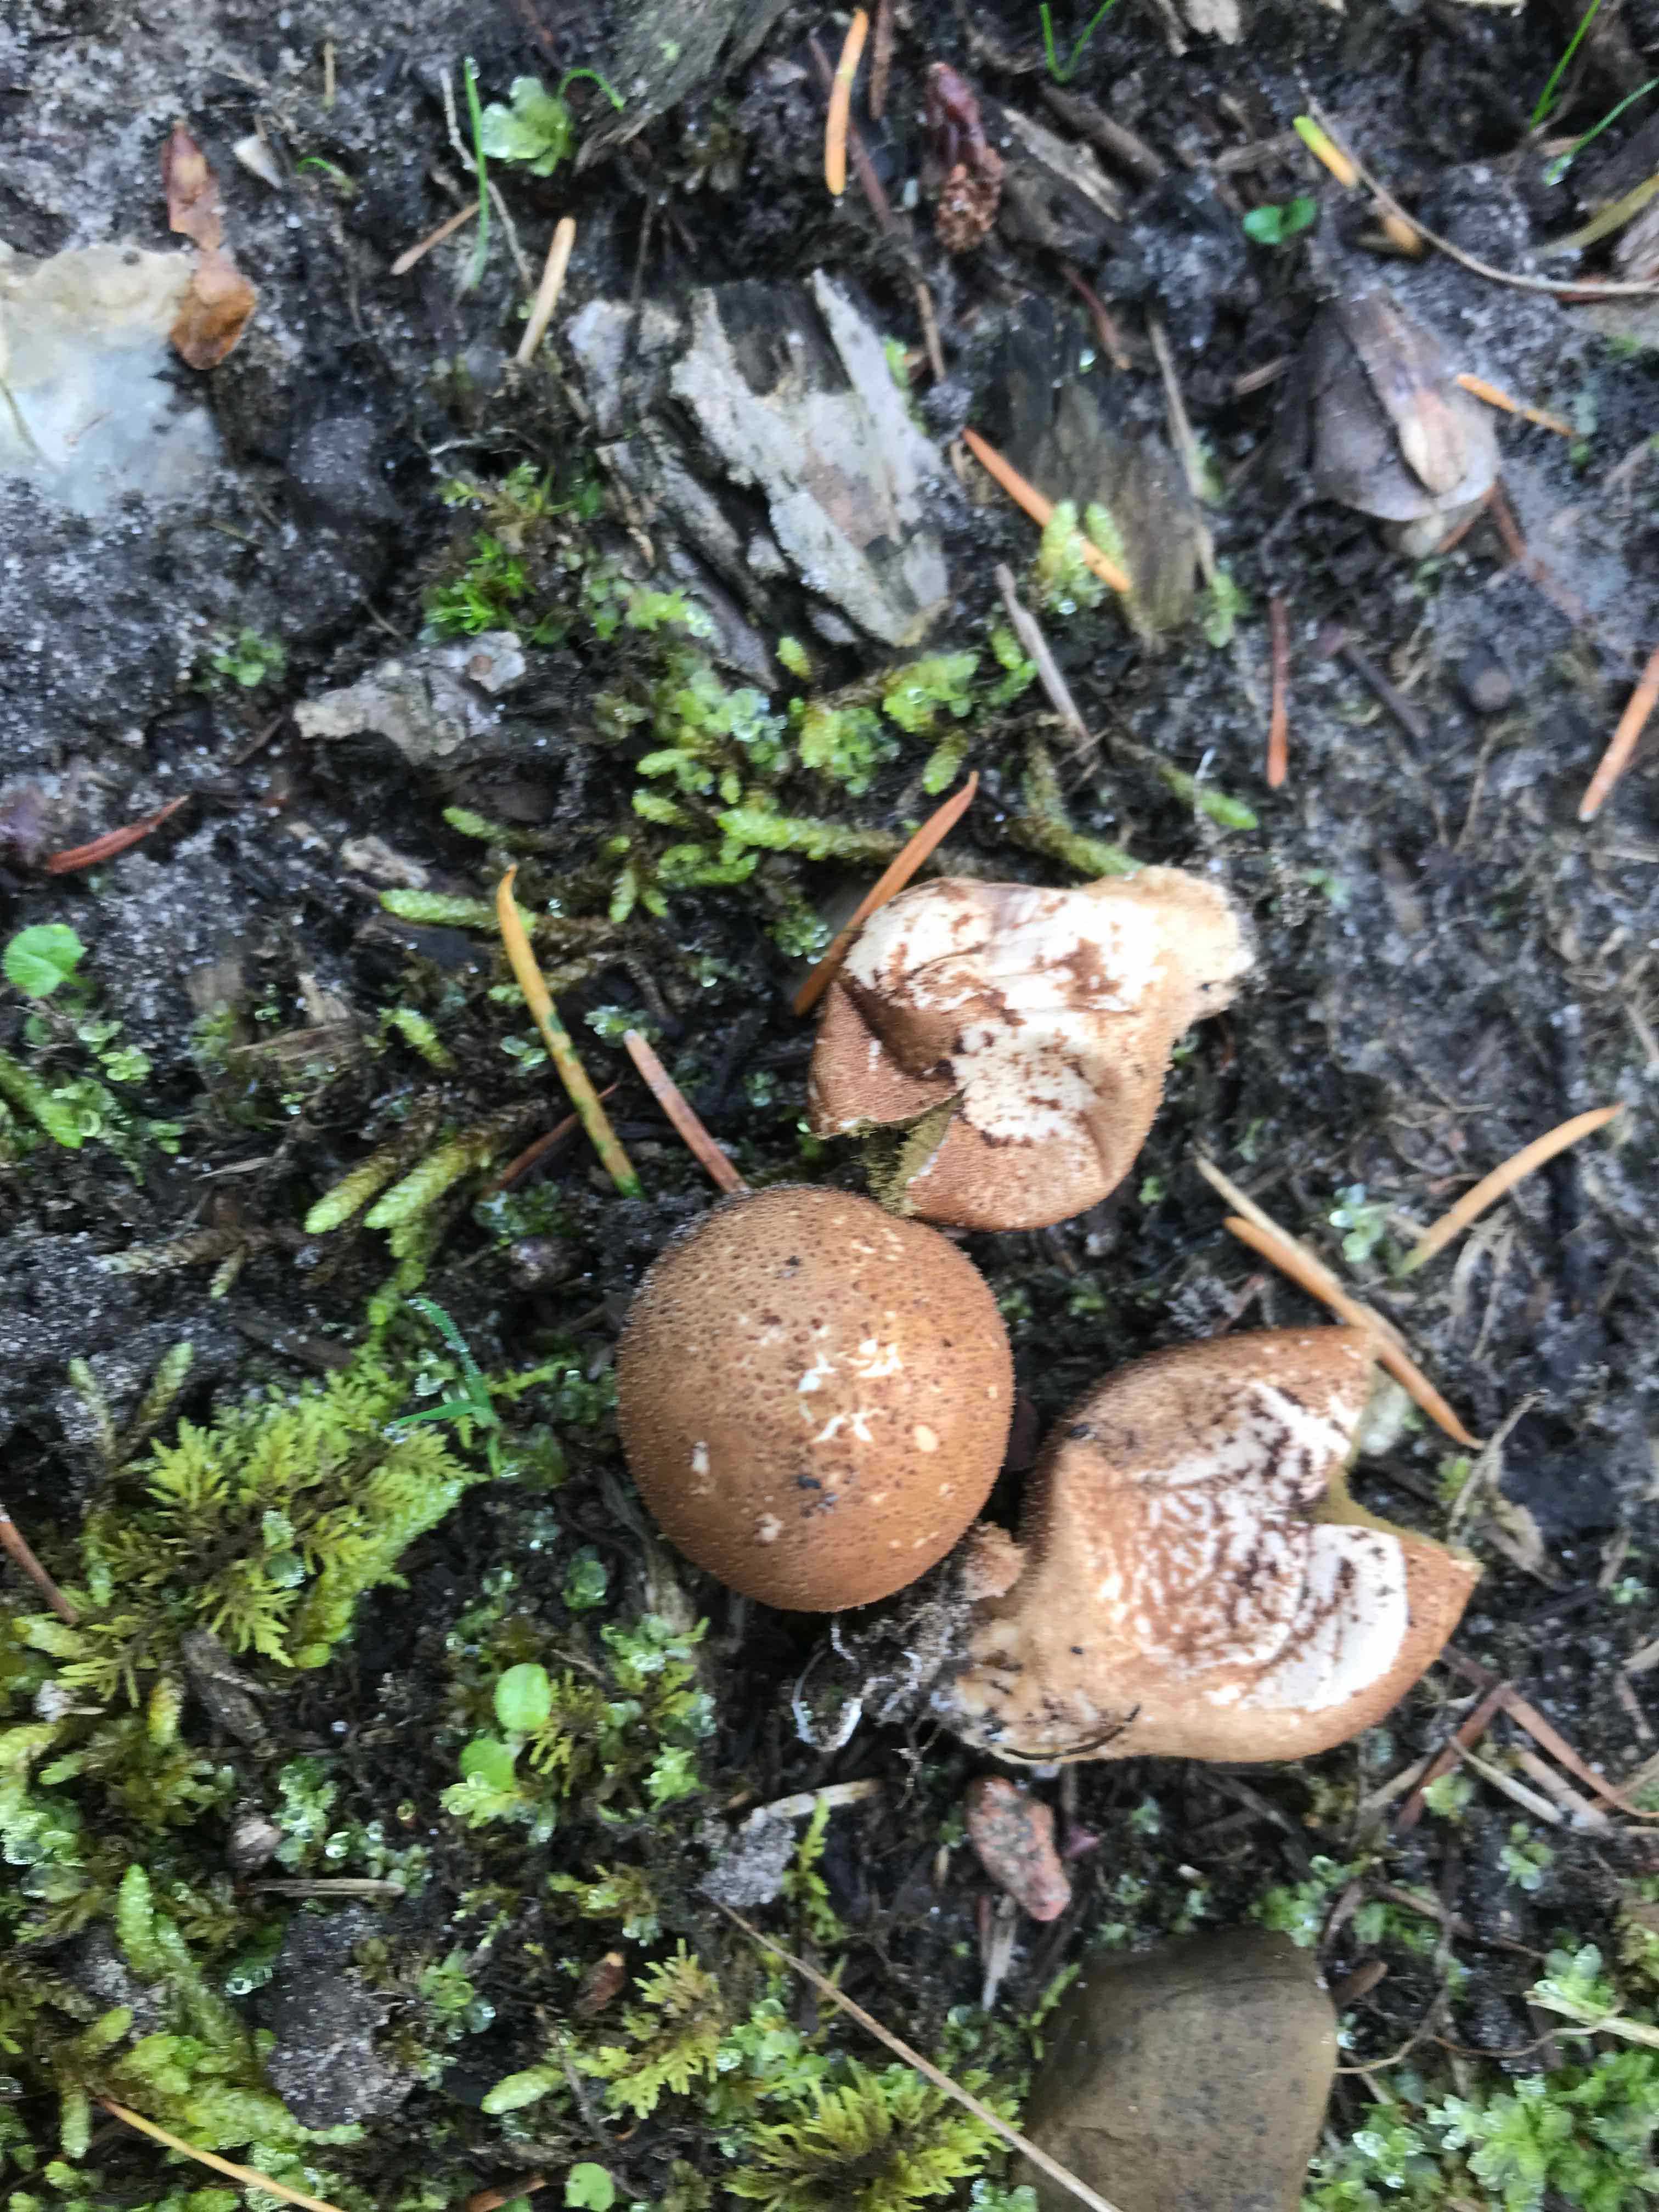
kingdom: Fungi
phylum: Basidiomycota
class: Agaricomycetes
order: Agaricales
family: Agaricaceae
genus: Lycoperdon
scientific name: Lycoperdon
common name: støvbold
